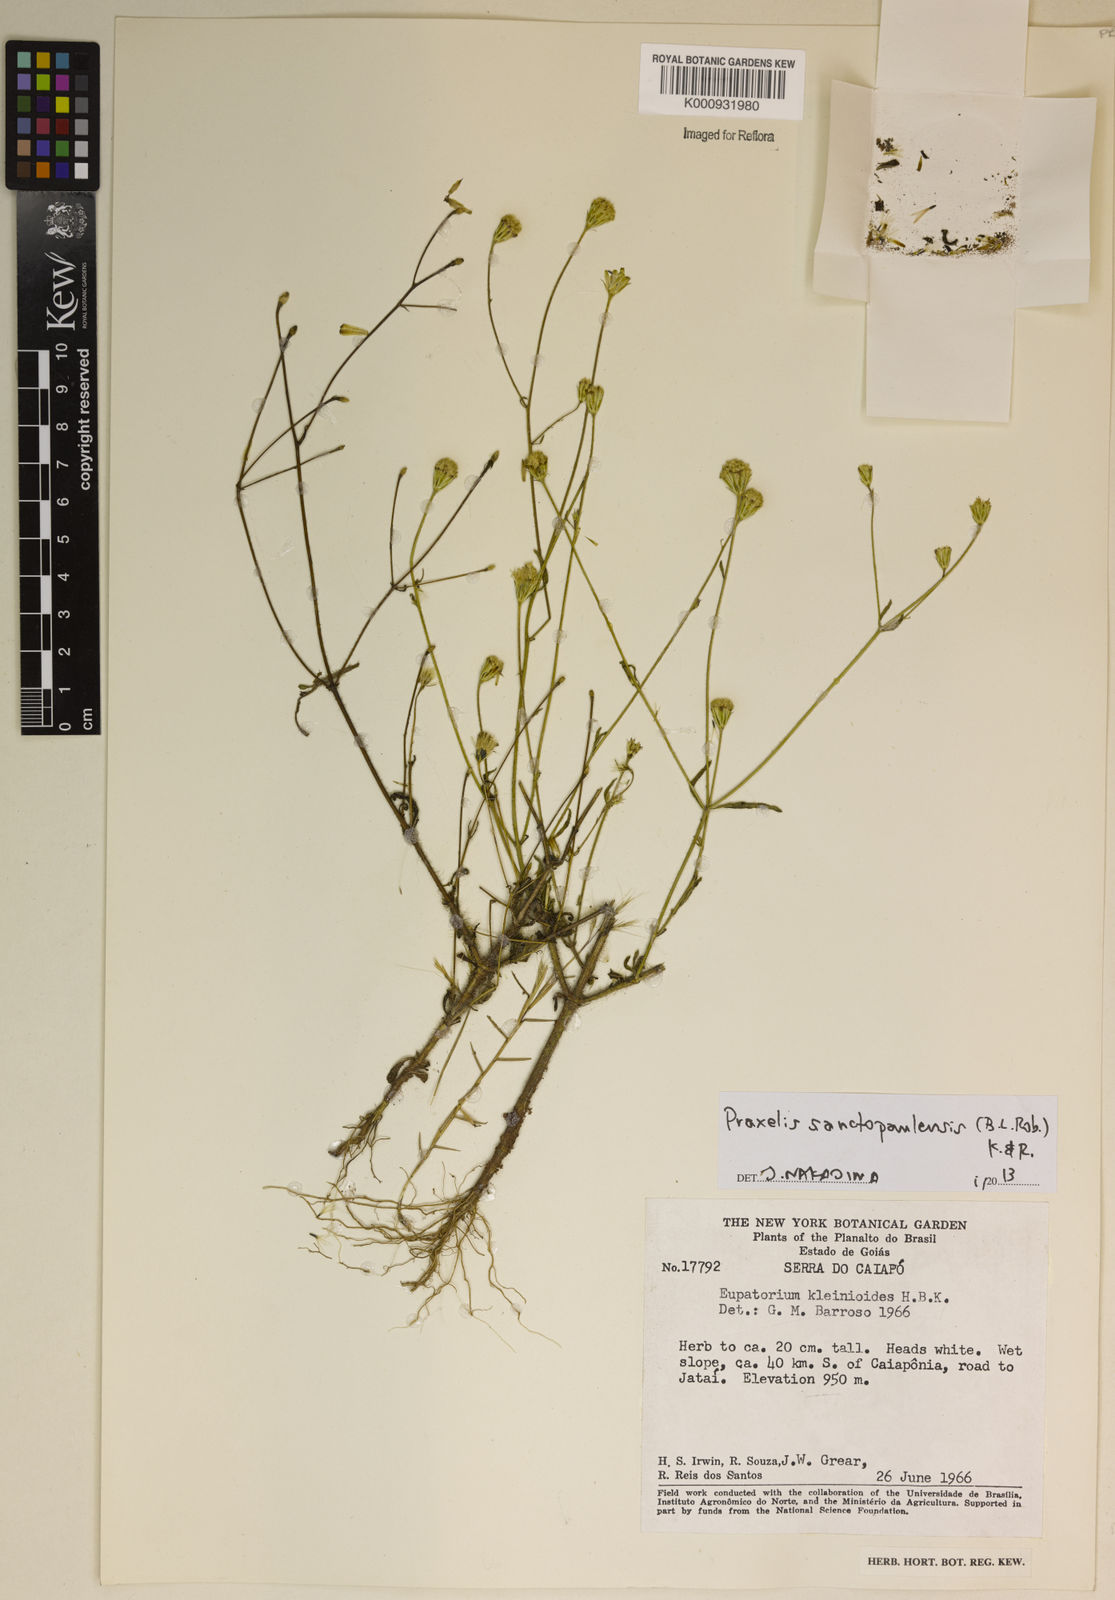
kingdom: Plantae
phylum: Tracheophyta
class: Magnoliopsida
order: Asterales
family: Asteraceae
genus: Praxelis
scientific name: Praxelis sanctopaulensis
